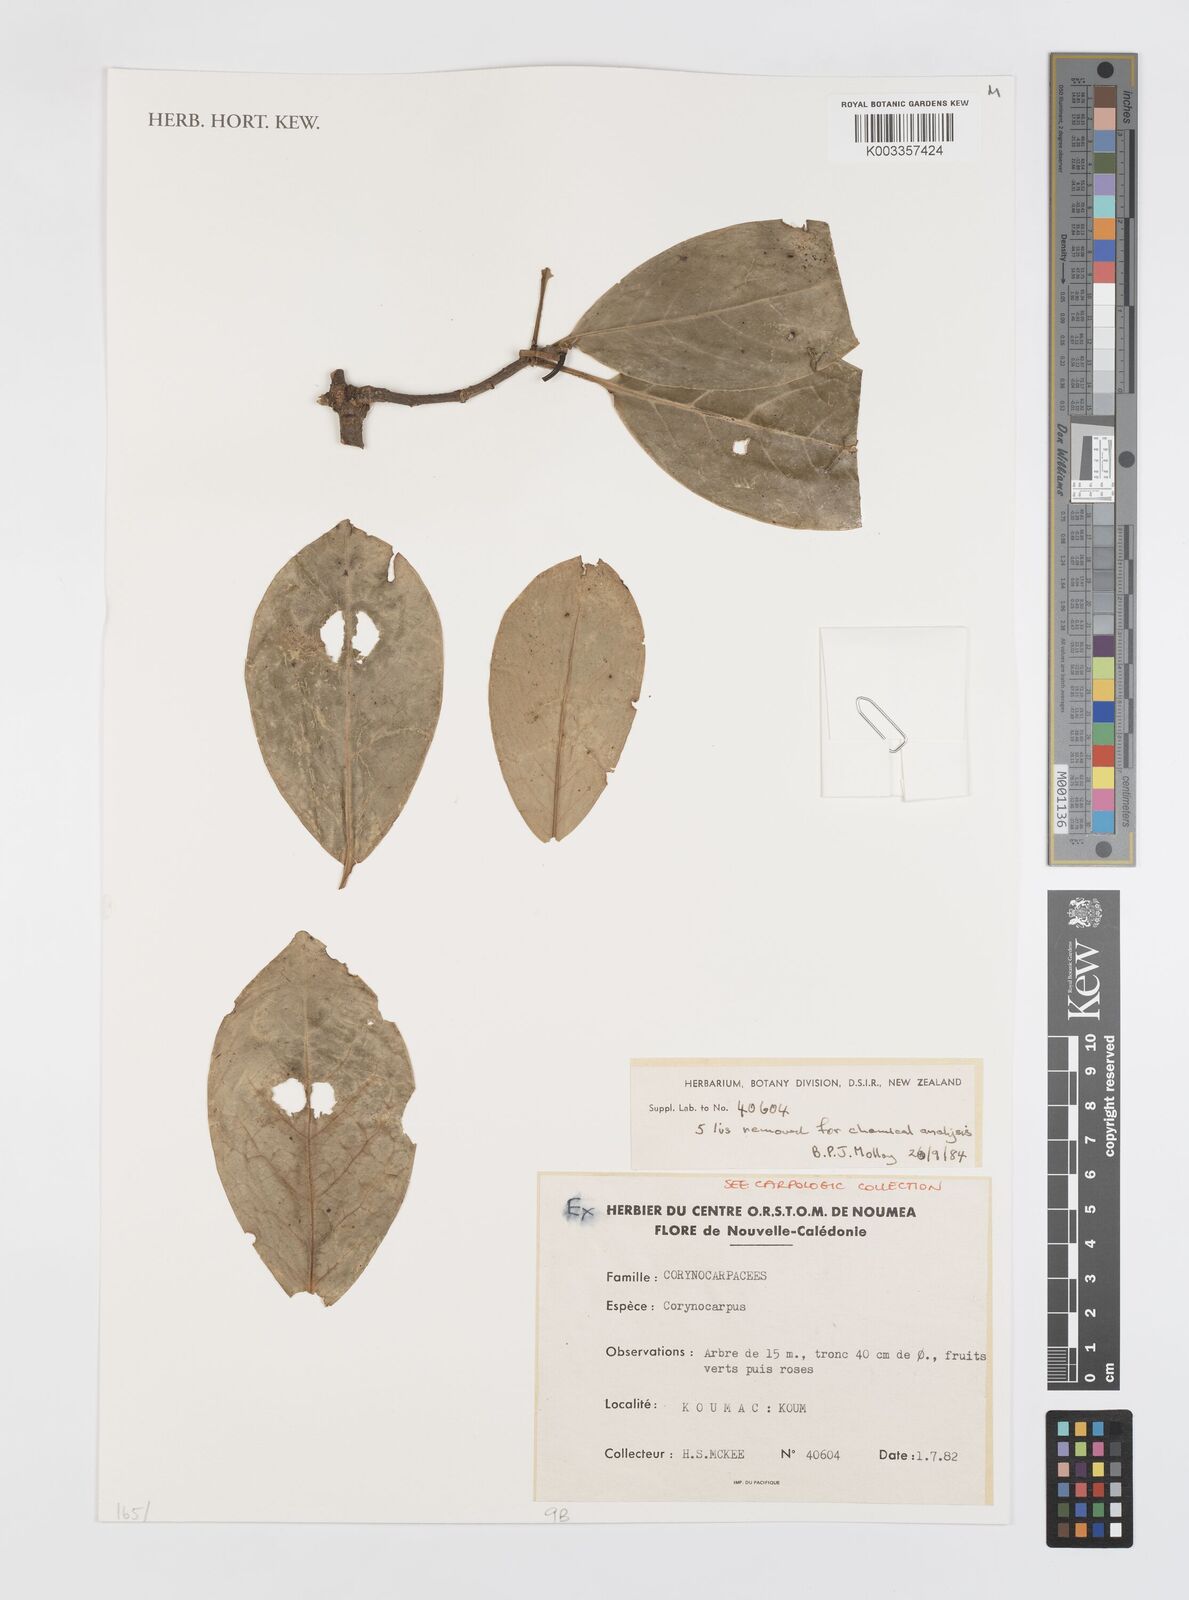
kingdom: Plantae
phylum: Tracheophyta
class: Magnoliopsida
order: Cucurbitales
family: Corynocarpaceae
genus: Corynocarpus
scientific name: Corynocarpus
